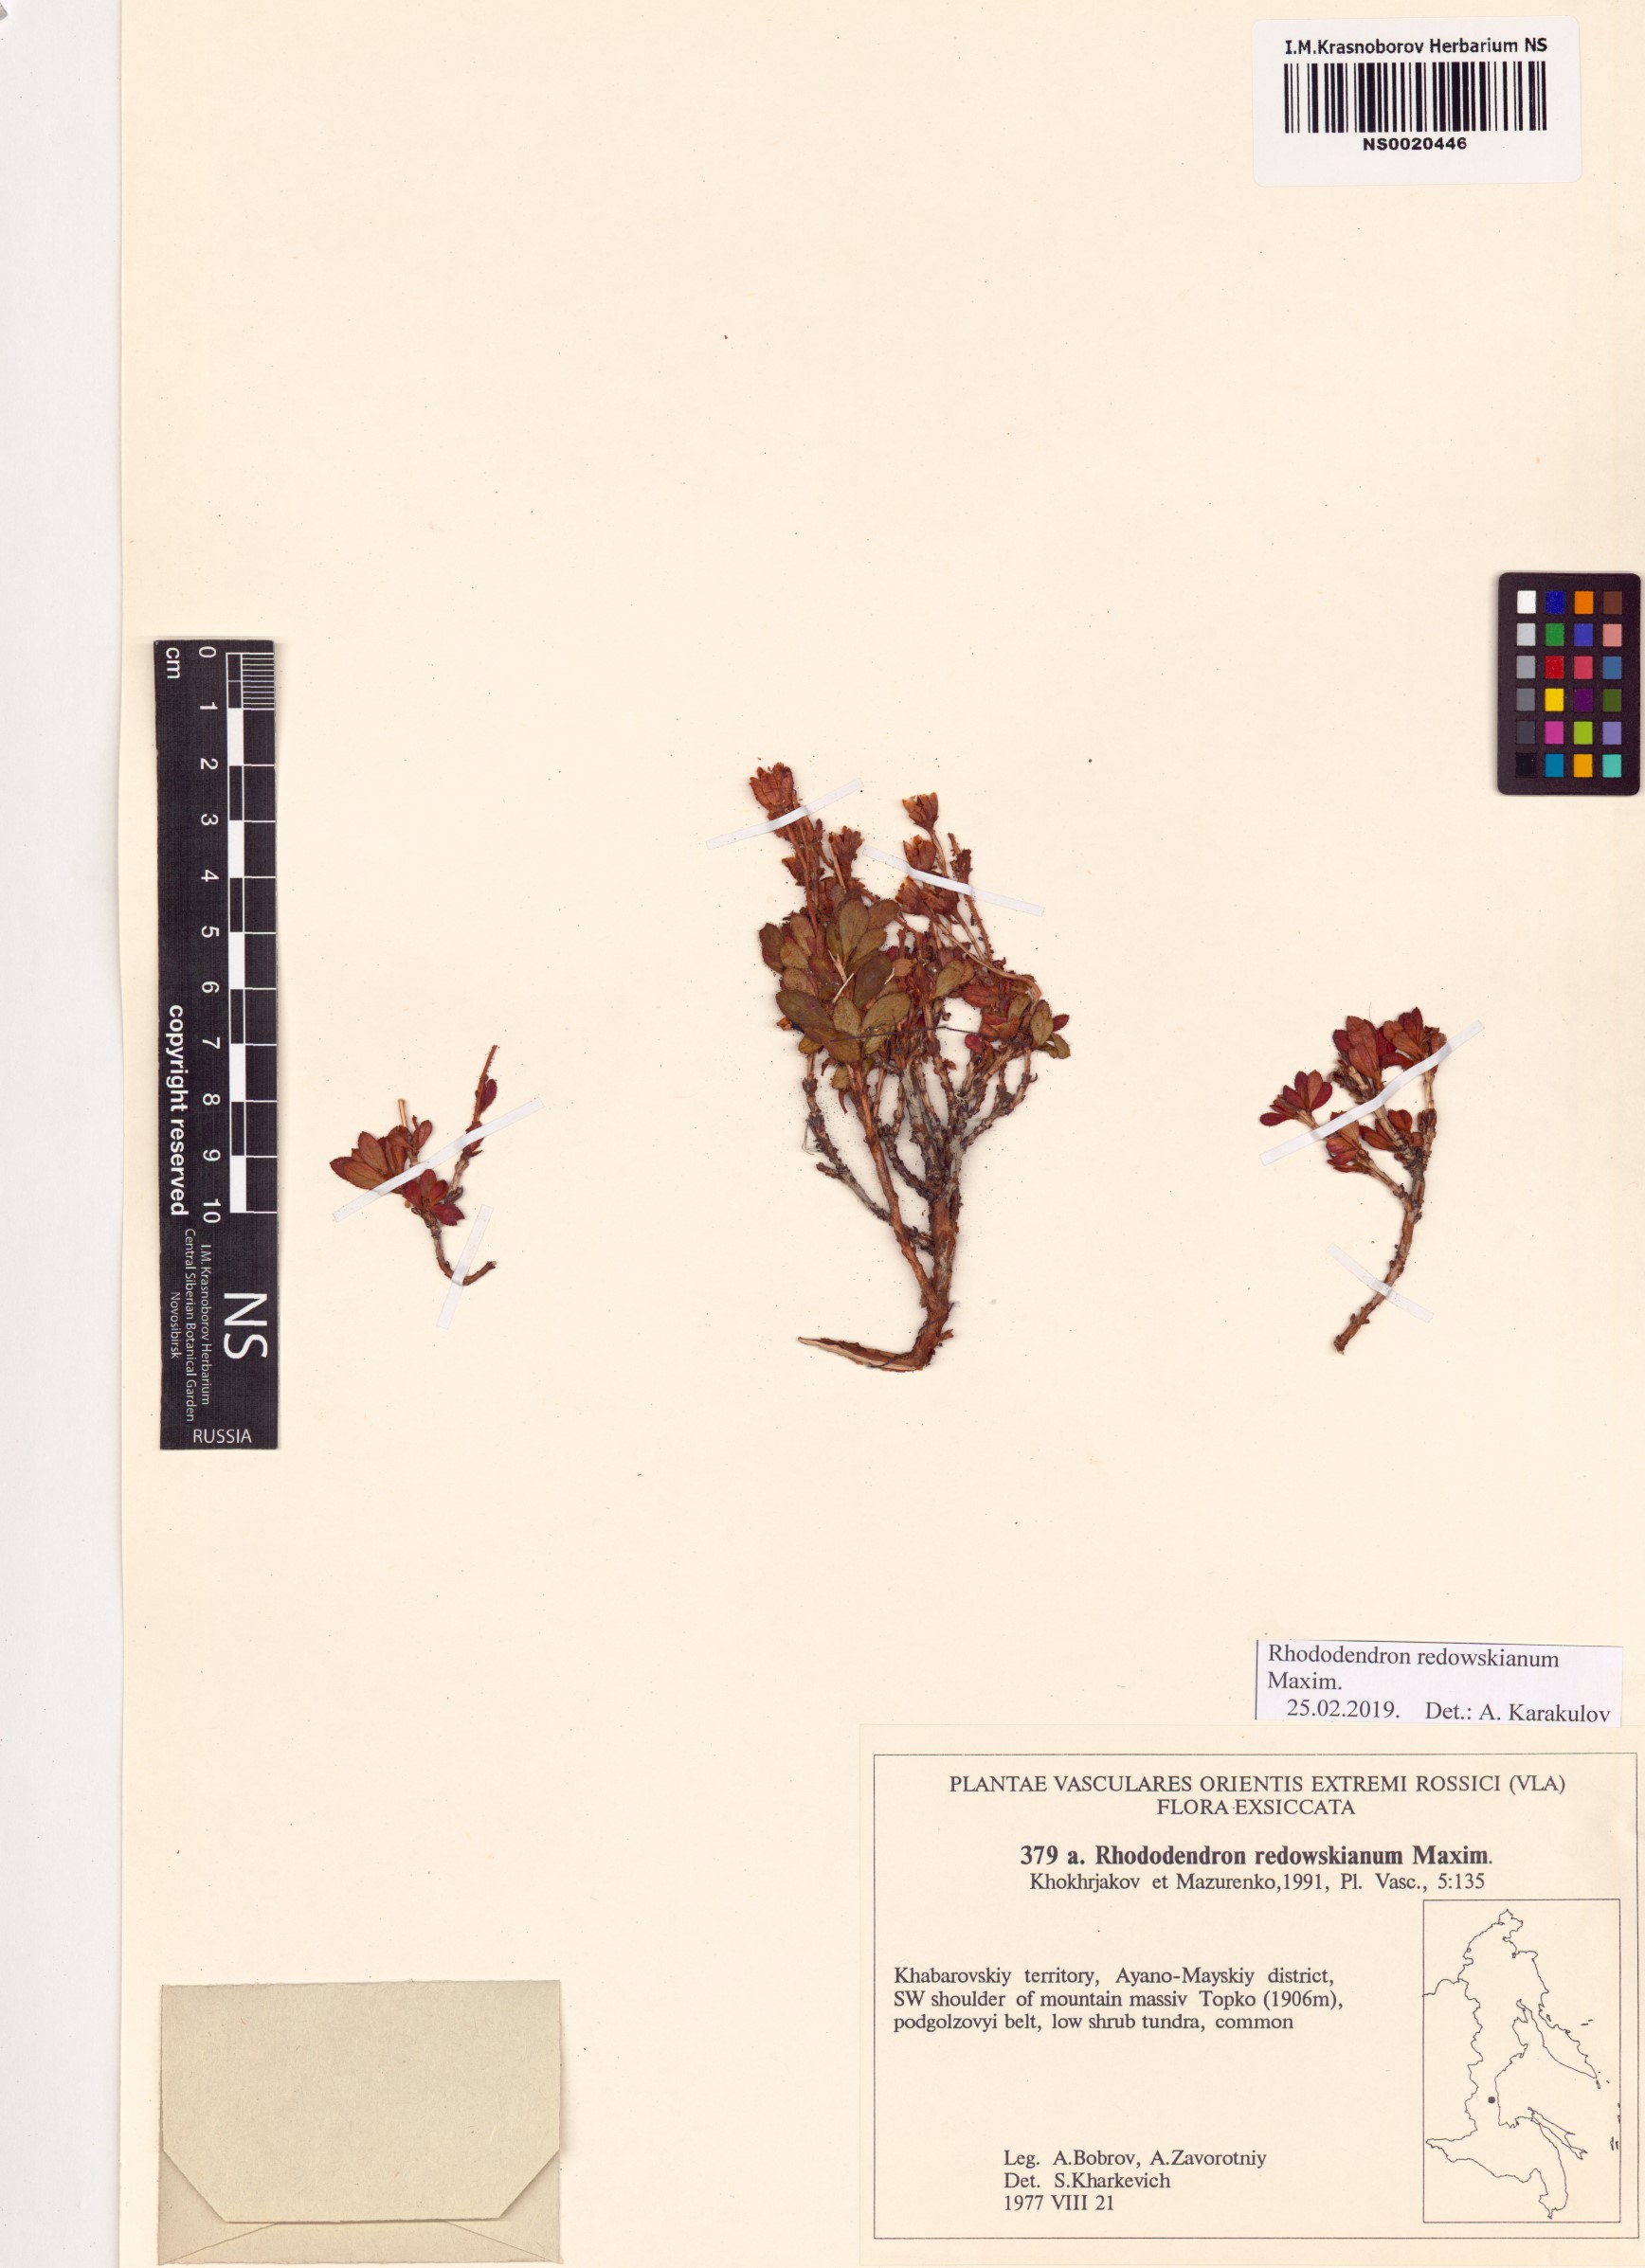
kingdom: Plantae
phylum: Tracheophyta
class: Magnoliopsida
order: Ericales
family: Ericaceae
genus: Rhododendron
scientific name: Rhododendron redowskianum
